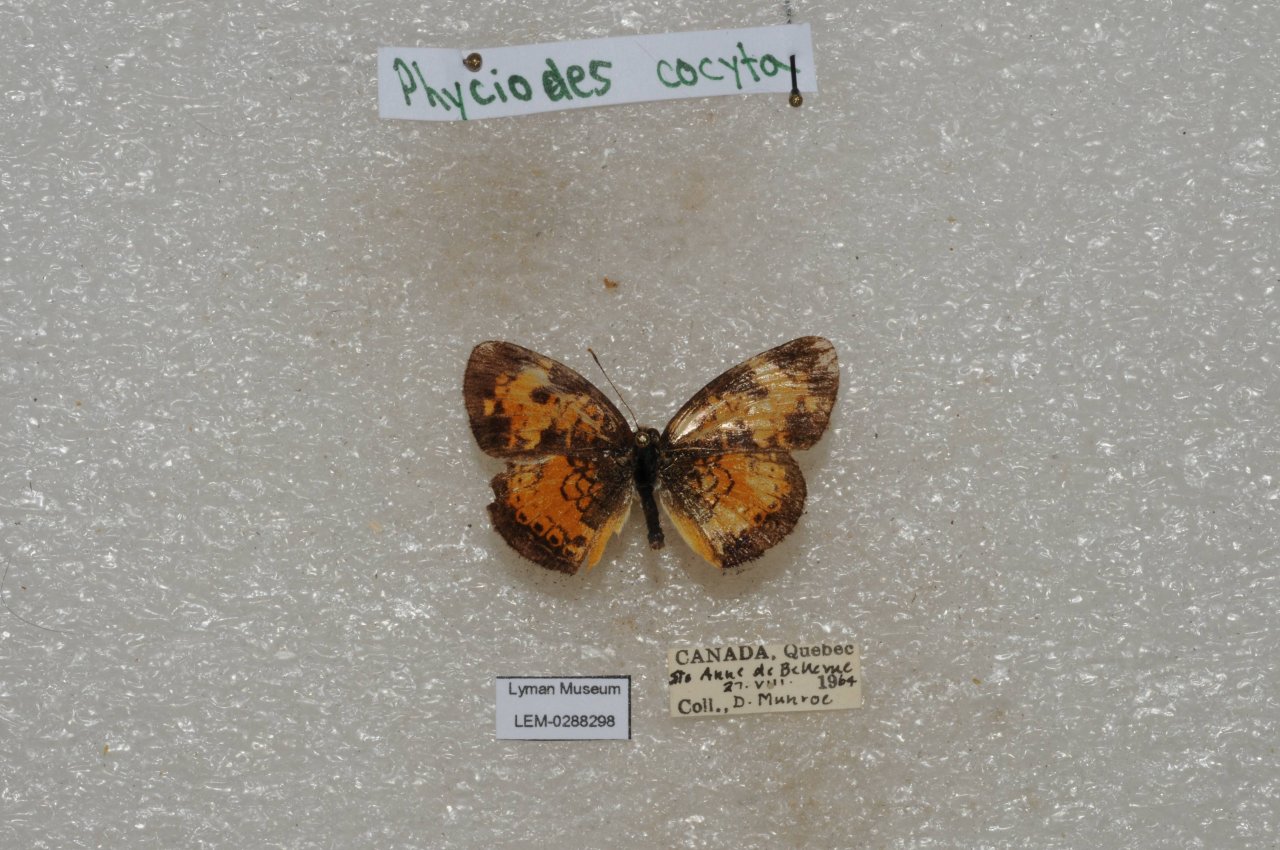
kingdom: Animalia
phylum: Arthropoda
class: Insecta
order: Lepidoptera
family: Nymphalidae
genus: Phyciodes
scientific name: Phyciodes tharos
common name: Northern Crescent
